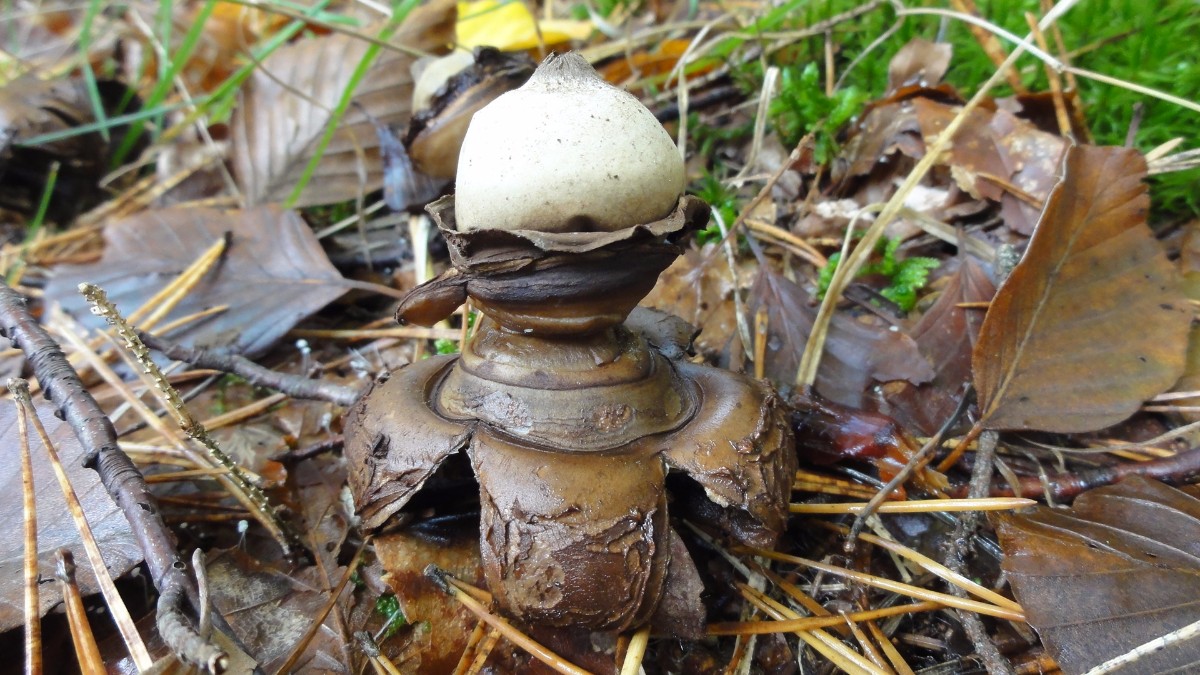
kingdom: Fungi
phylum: Basidiomycota
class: Agaricomycetes
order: Geastrales
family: Geastraceae
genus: Geastrum
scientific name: Geastrum michelianum
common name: kødet stjernebold
